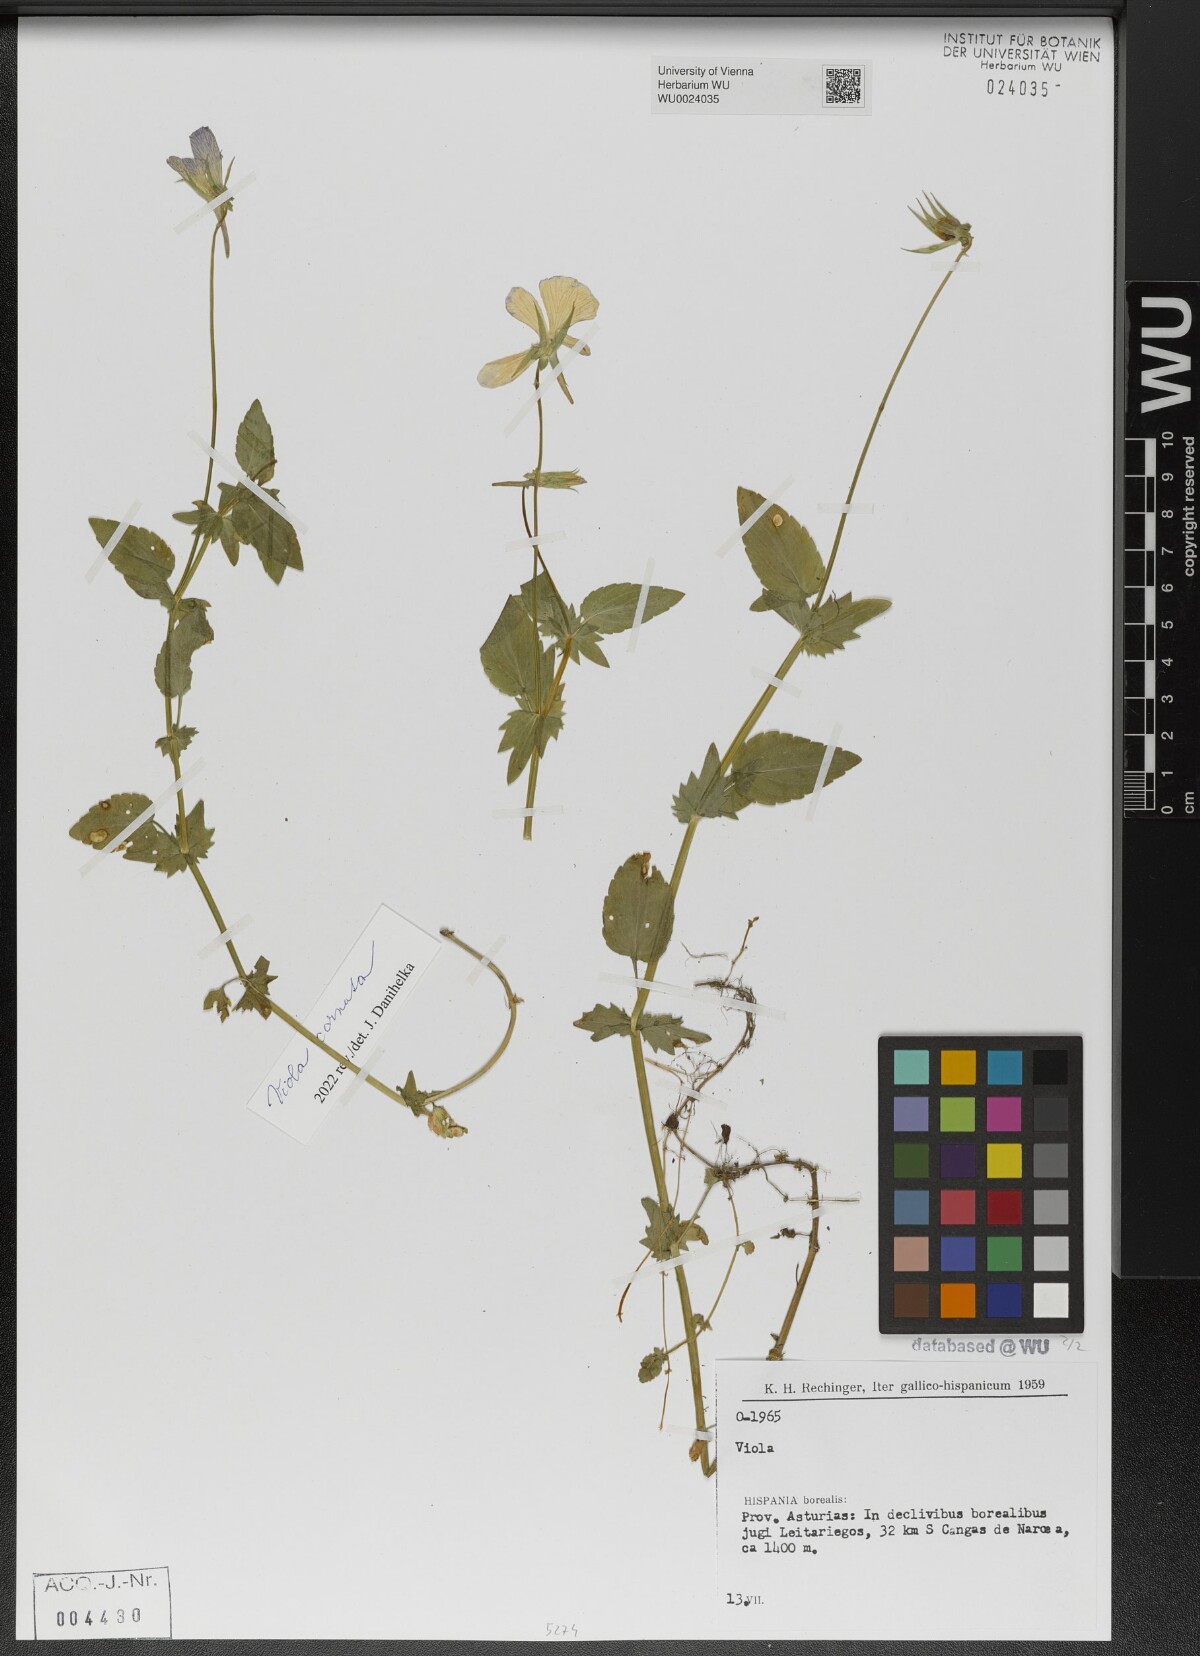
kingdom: Plantae
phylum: Tracheophyta
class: Magnoliopsida
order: Malpighiales
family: Violaceae
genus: Viola
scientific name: Viola cornuta
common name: Horned pansy
